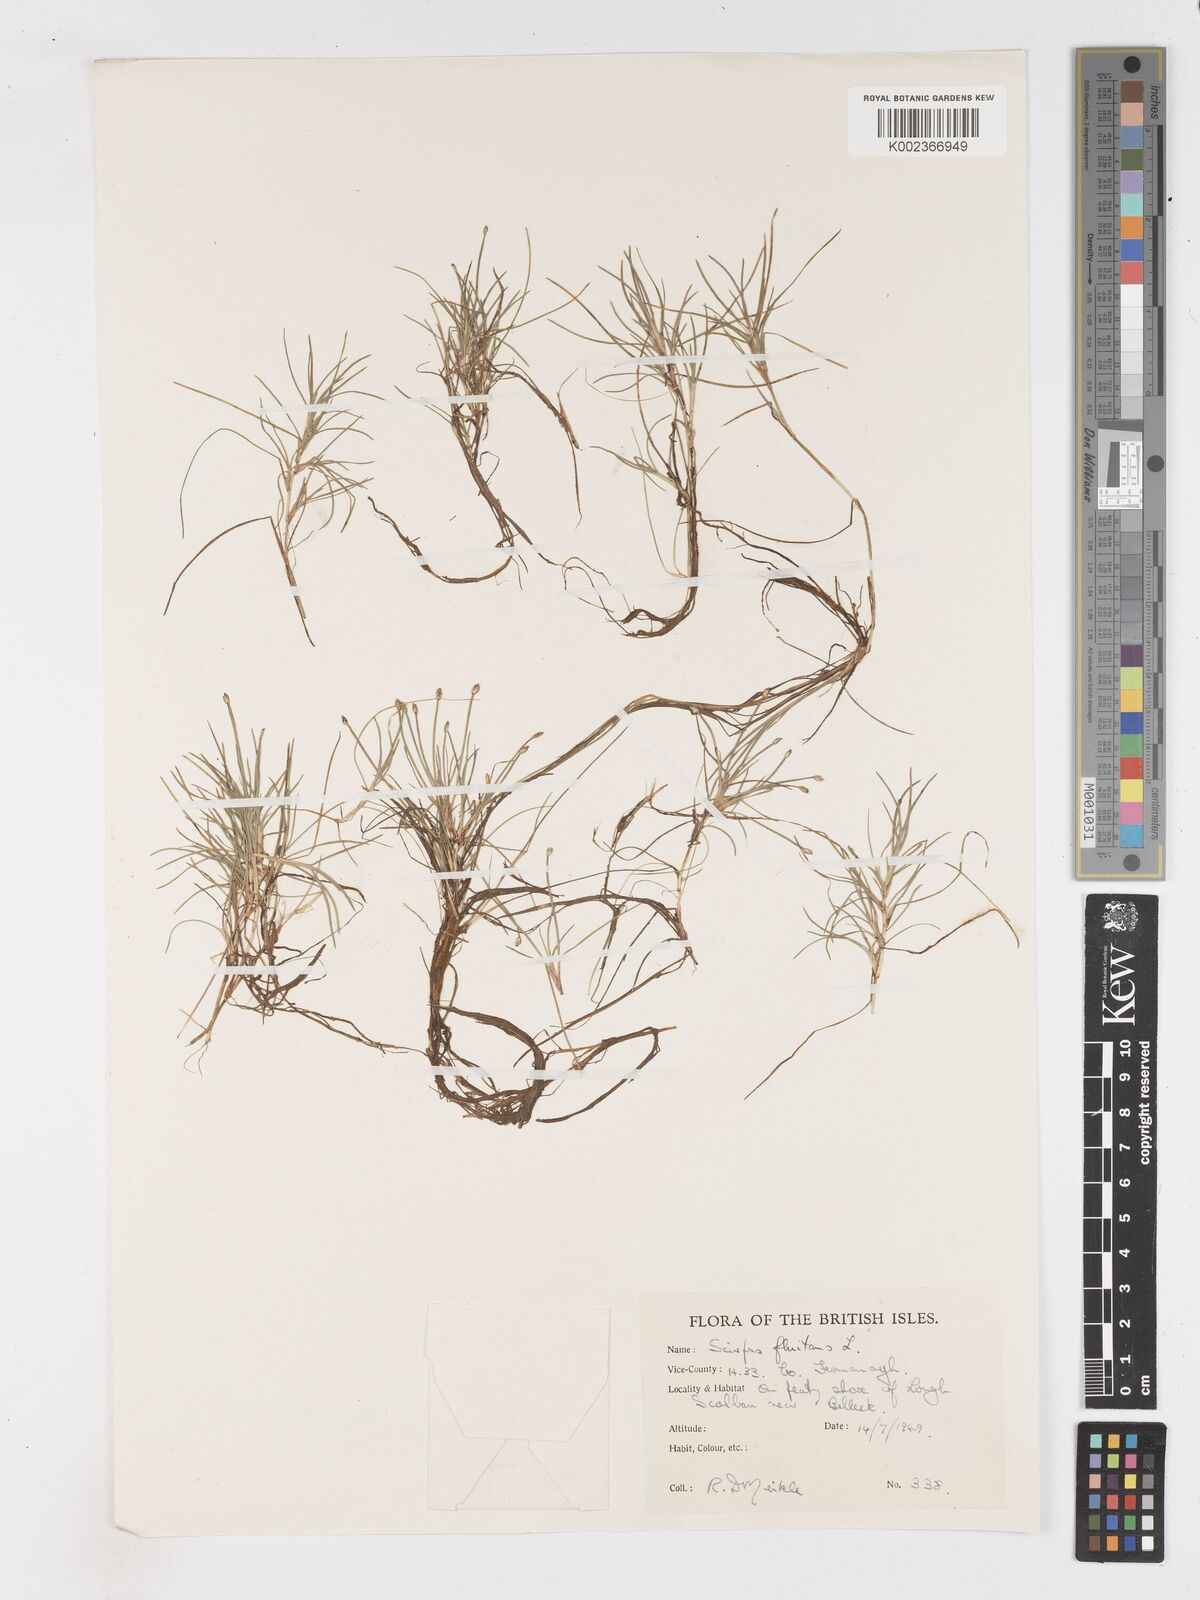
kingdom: Plantae
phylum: Tracheophyta
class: Liliopsida
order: Poales
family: Cyperaceae
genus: Isolepis
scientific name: Isolepis fluitans
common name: Floating club-rush
